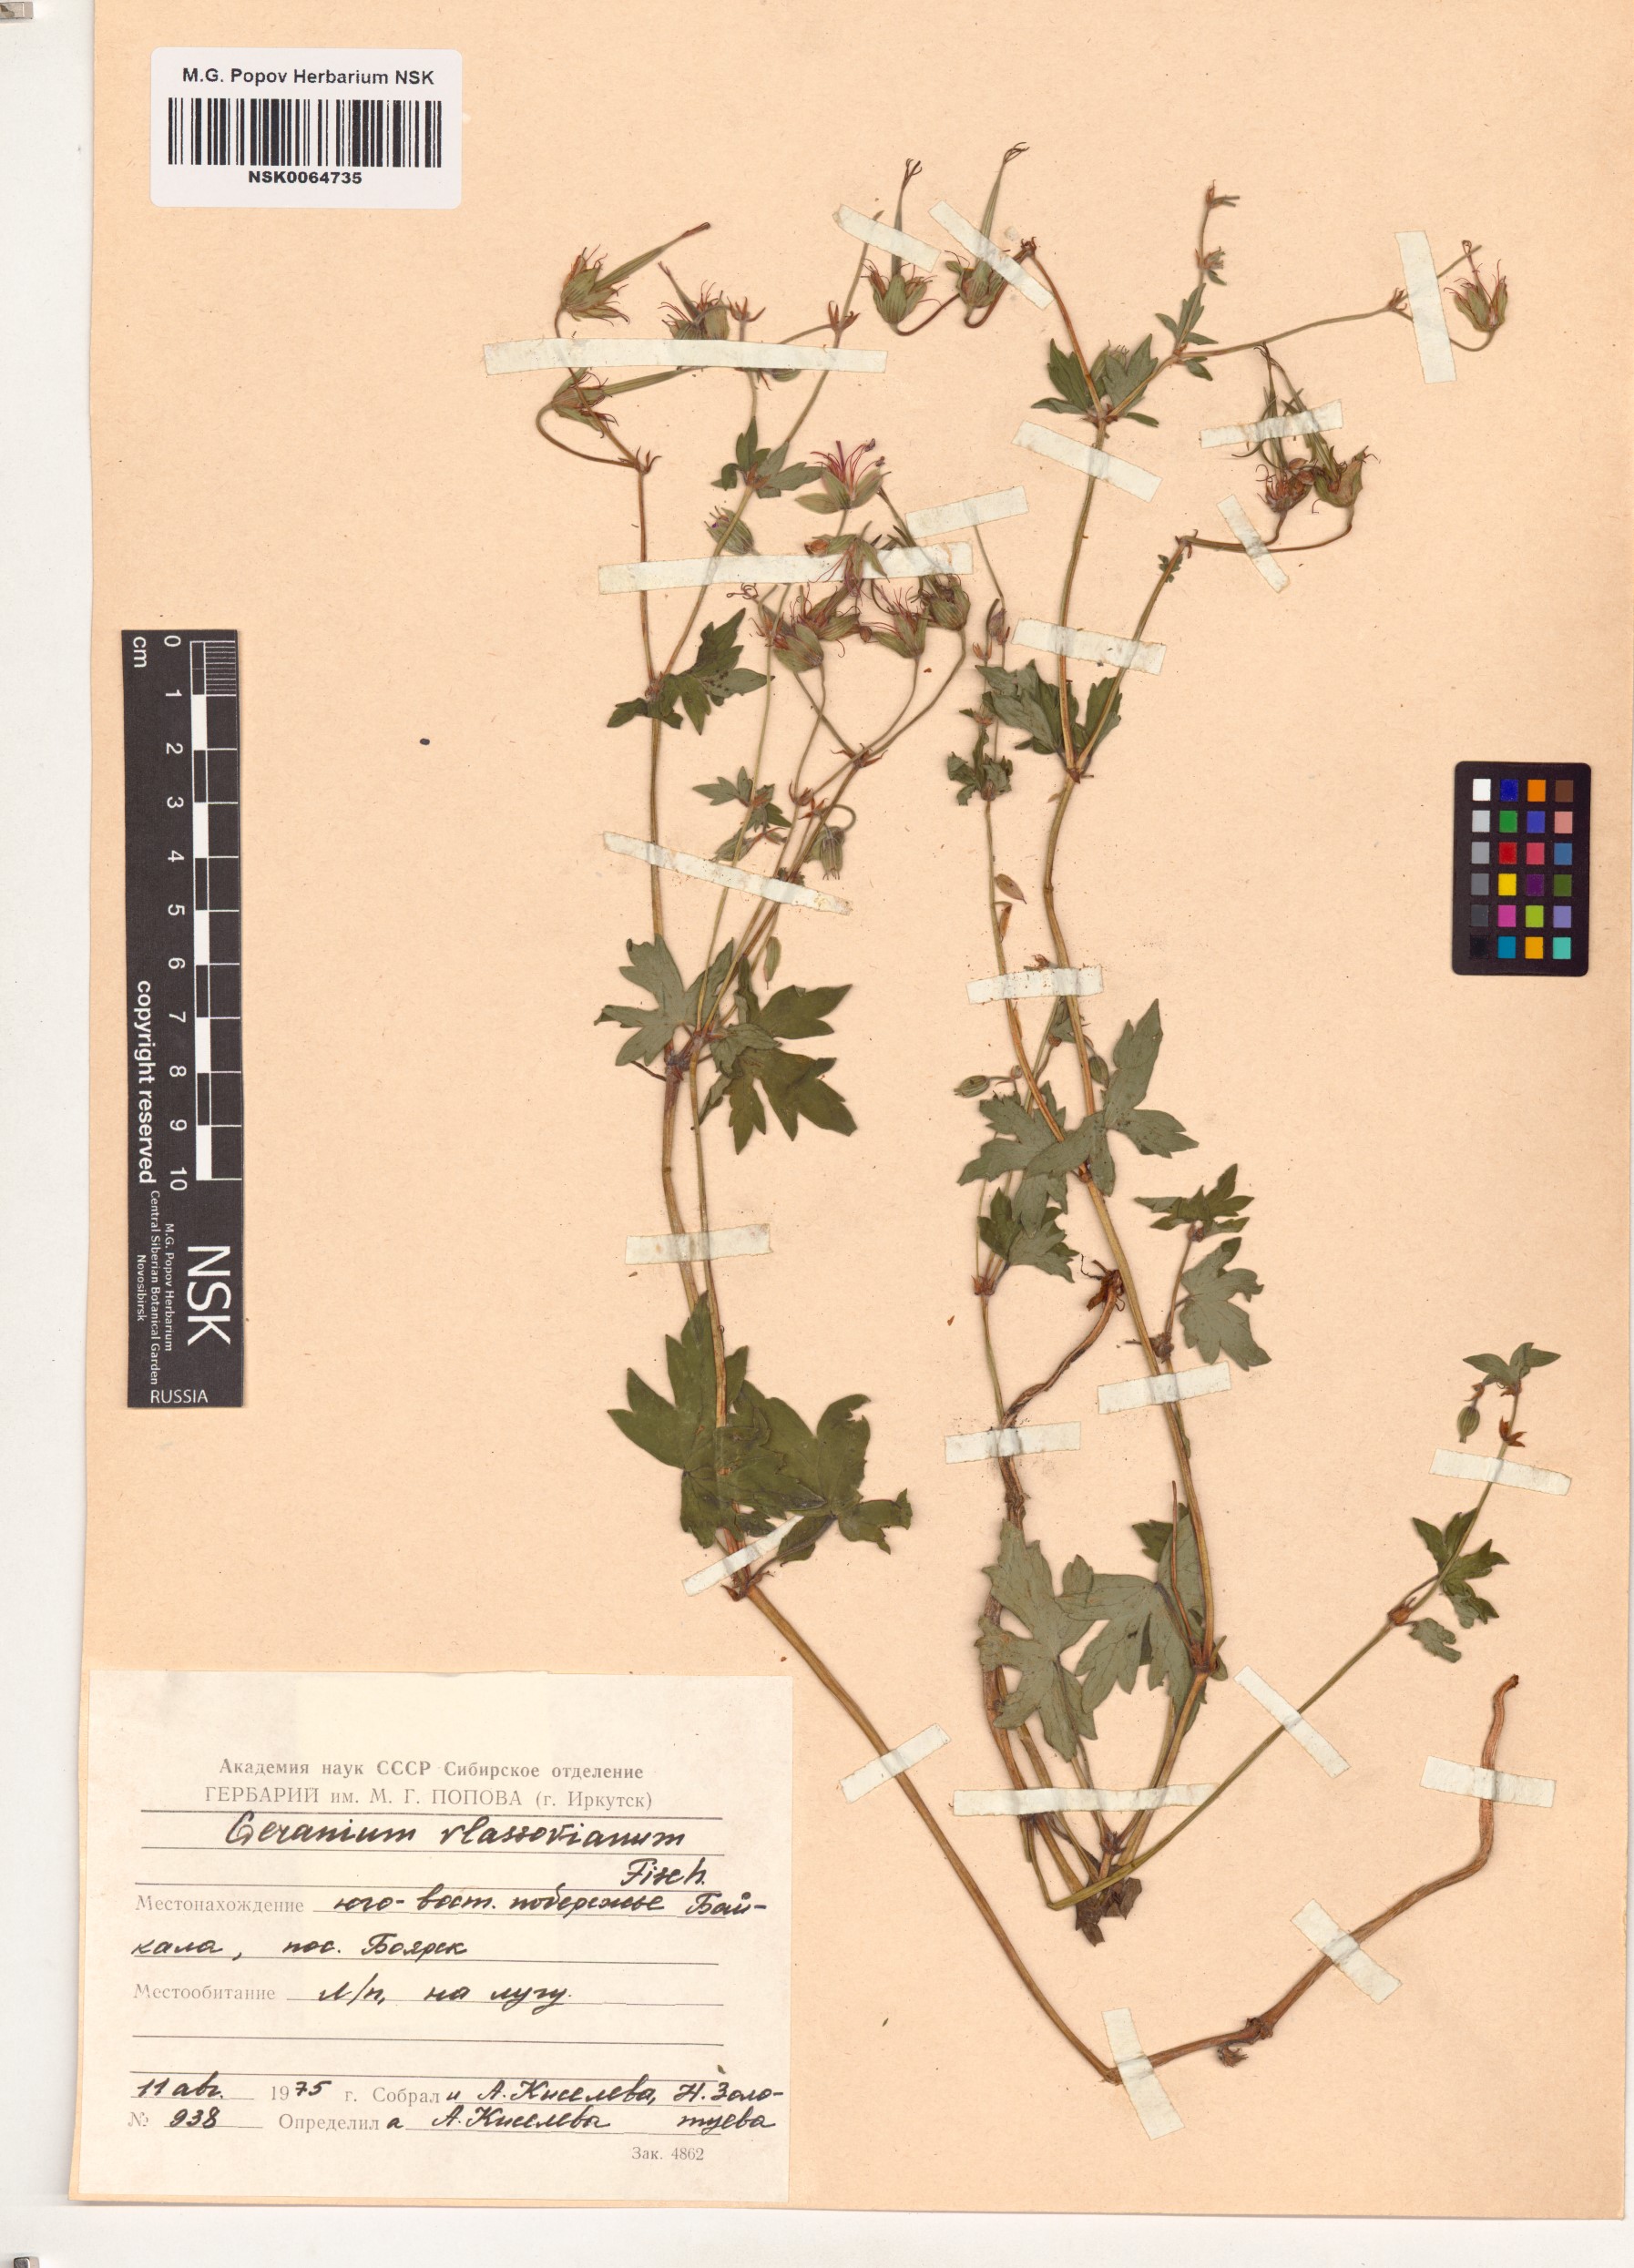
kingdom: Plantae
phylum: Tracheophyta
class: Magnoliopsida
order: Geraniales
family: Geraniaceae
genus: Geranium
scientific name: Geranium wlassovianum
